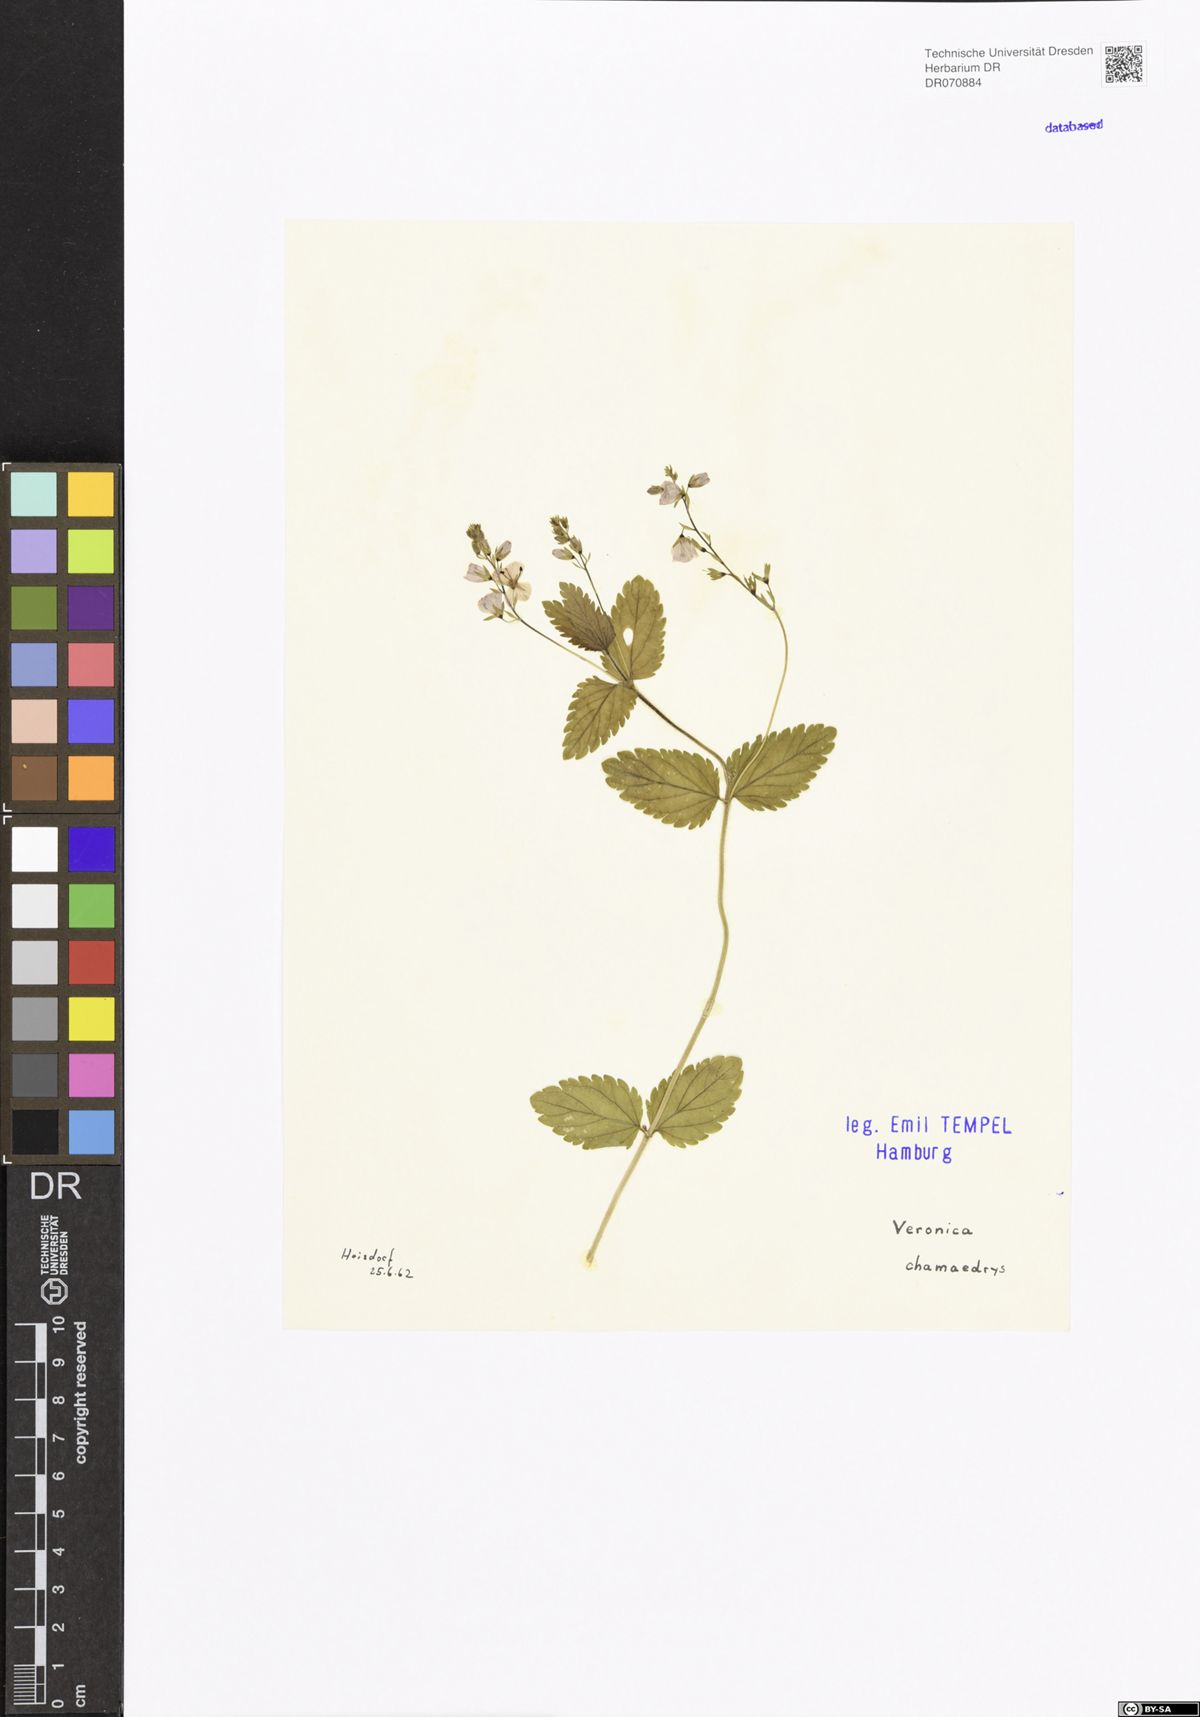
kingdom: Plantae
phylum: Tracheophyta
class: Magnoliopsida
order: Lamiales
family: Plantaginaceae
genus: Veronica
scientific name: Veronica chamaedrys
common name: Germander speedwell
